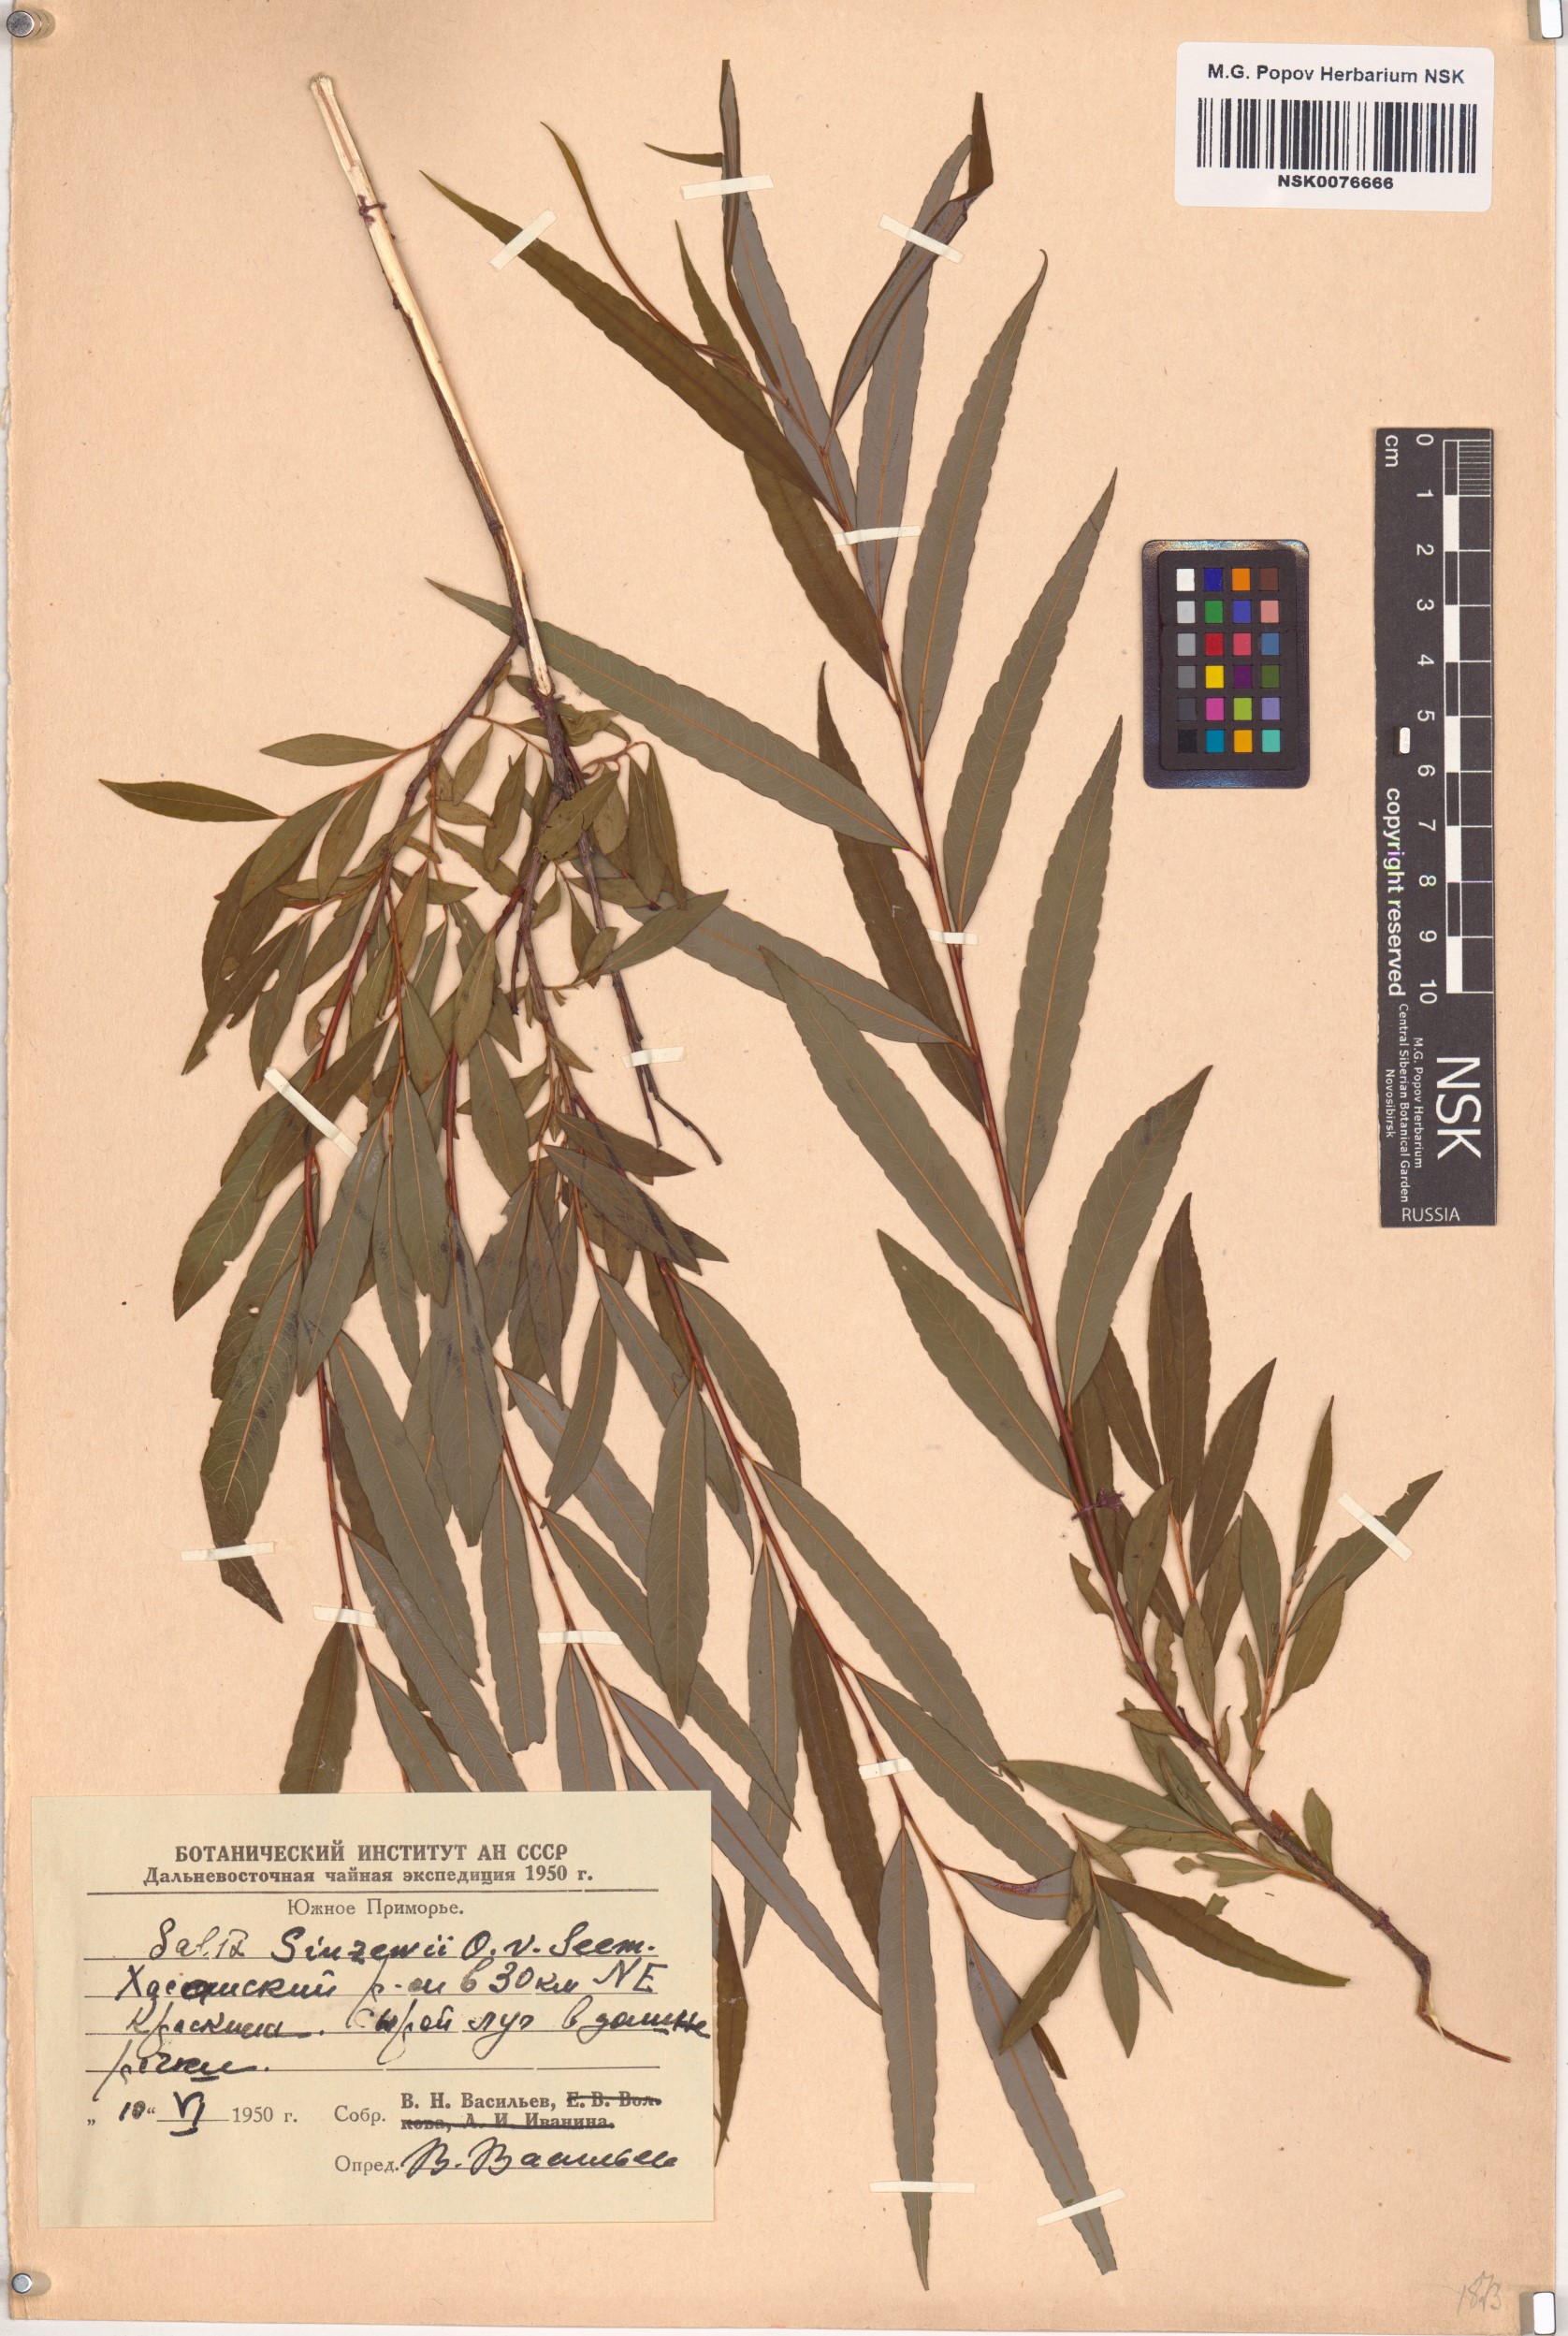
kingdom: Plantae
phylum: Tracheophyta
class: Magnoliopsida
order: Malpighiales
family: Salicaceae
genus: Salix
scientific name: Salix udensis
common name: Sachalin willow
